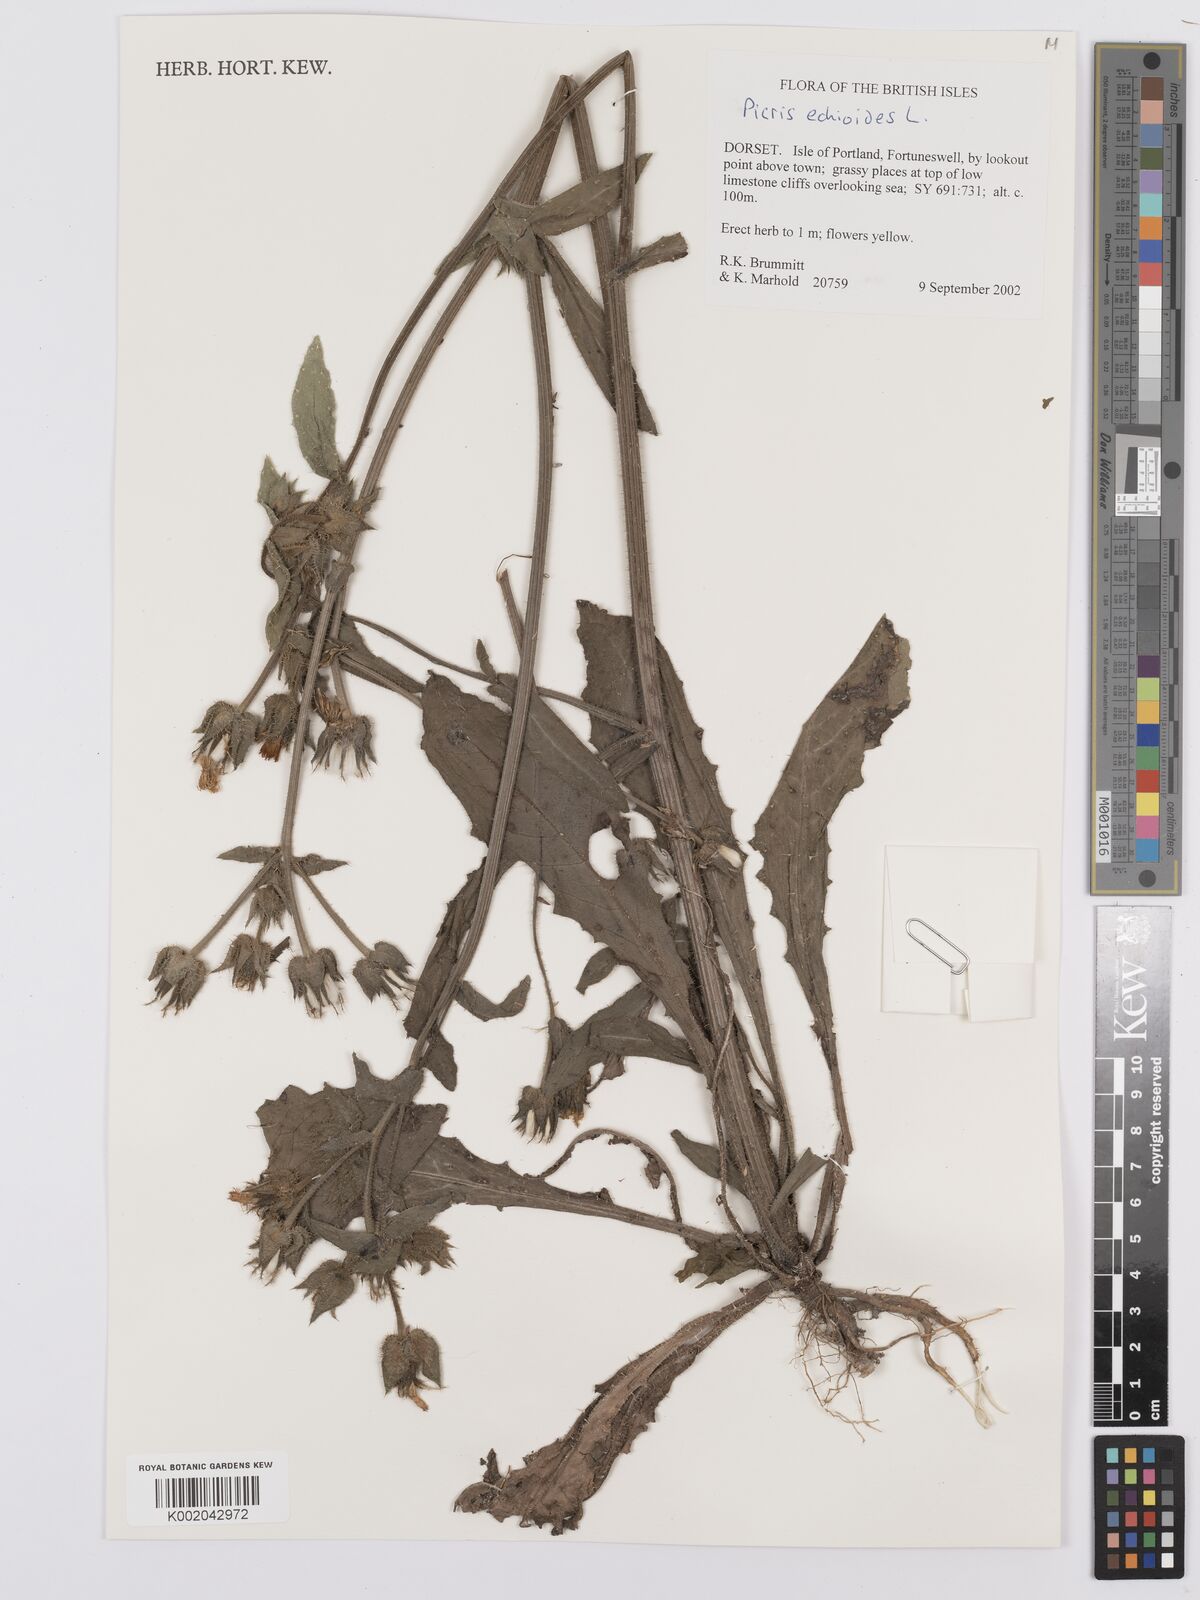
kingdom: Plantae
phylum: Tracheophyta
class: Magnoliopsida
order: Asterales
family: Asteraceae
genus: Helminthotheca
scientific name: Helminthotheca echioides
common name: Ox-tongue
